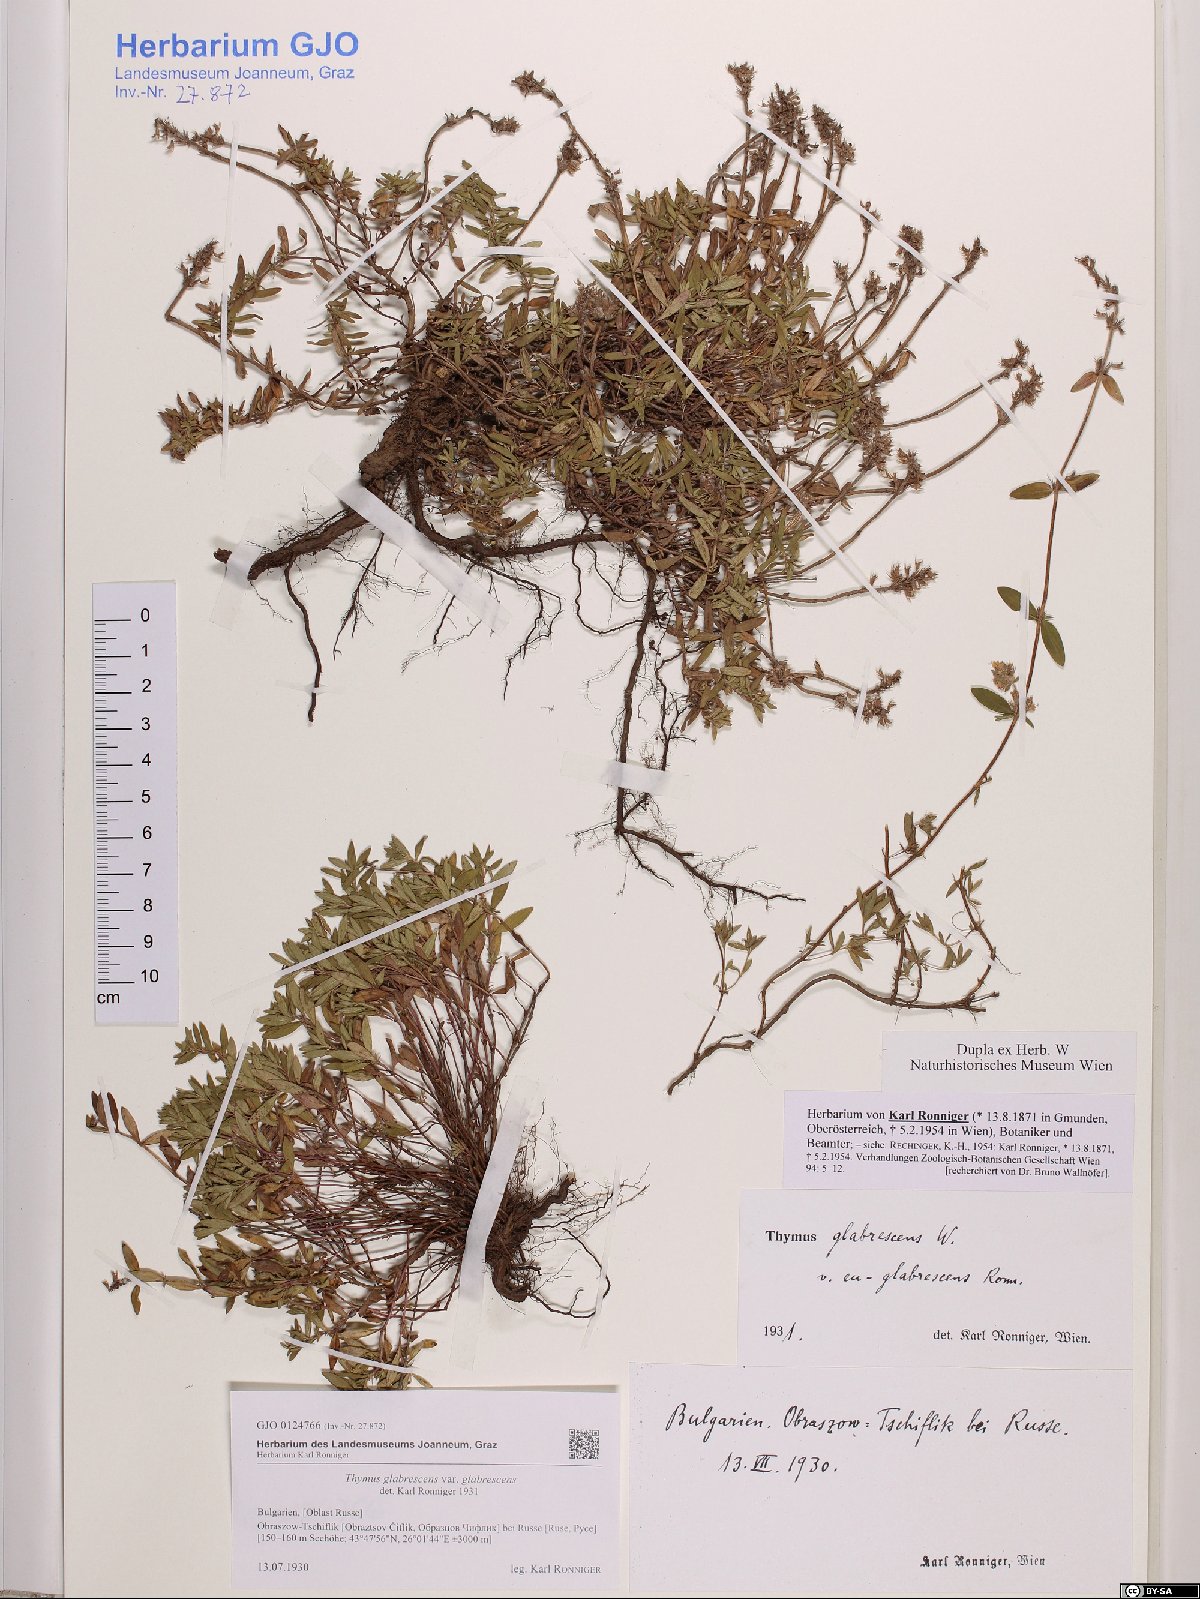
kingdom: Plantae
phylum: Tracheophyta
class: Magnoliopsida
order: Lamiales
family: Lamiaceae
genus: Thymus
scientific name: Thymus odoratissimus
